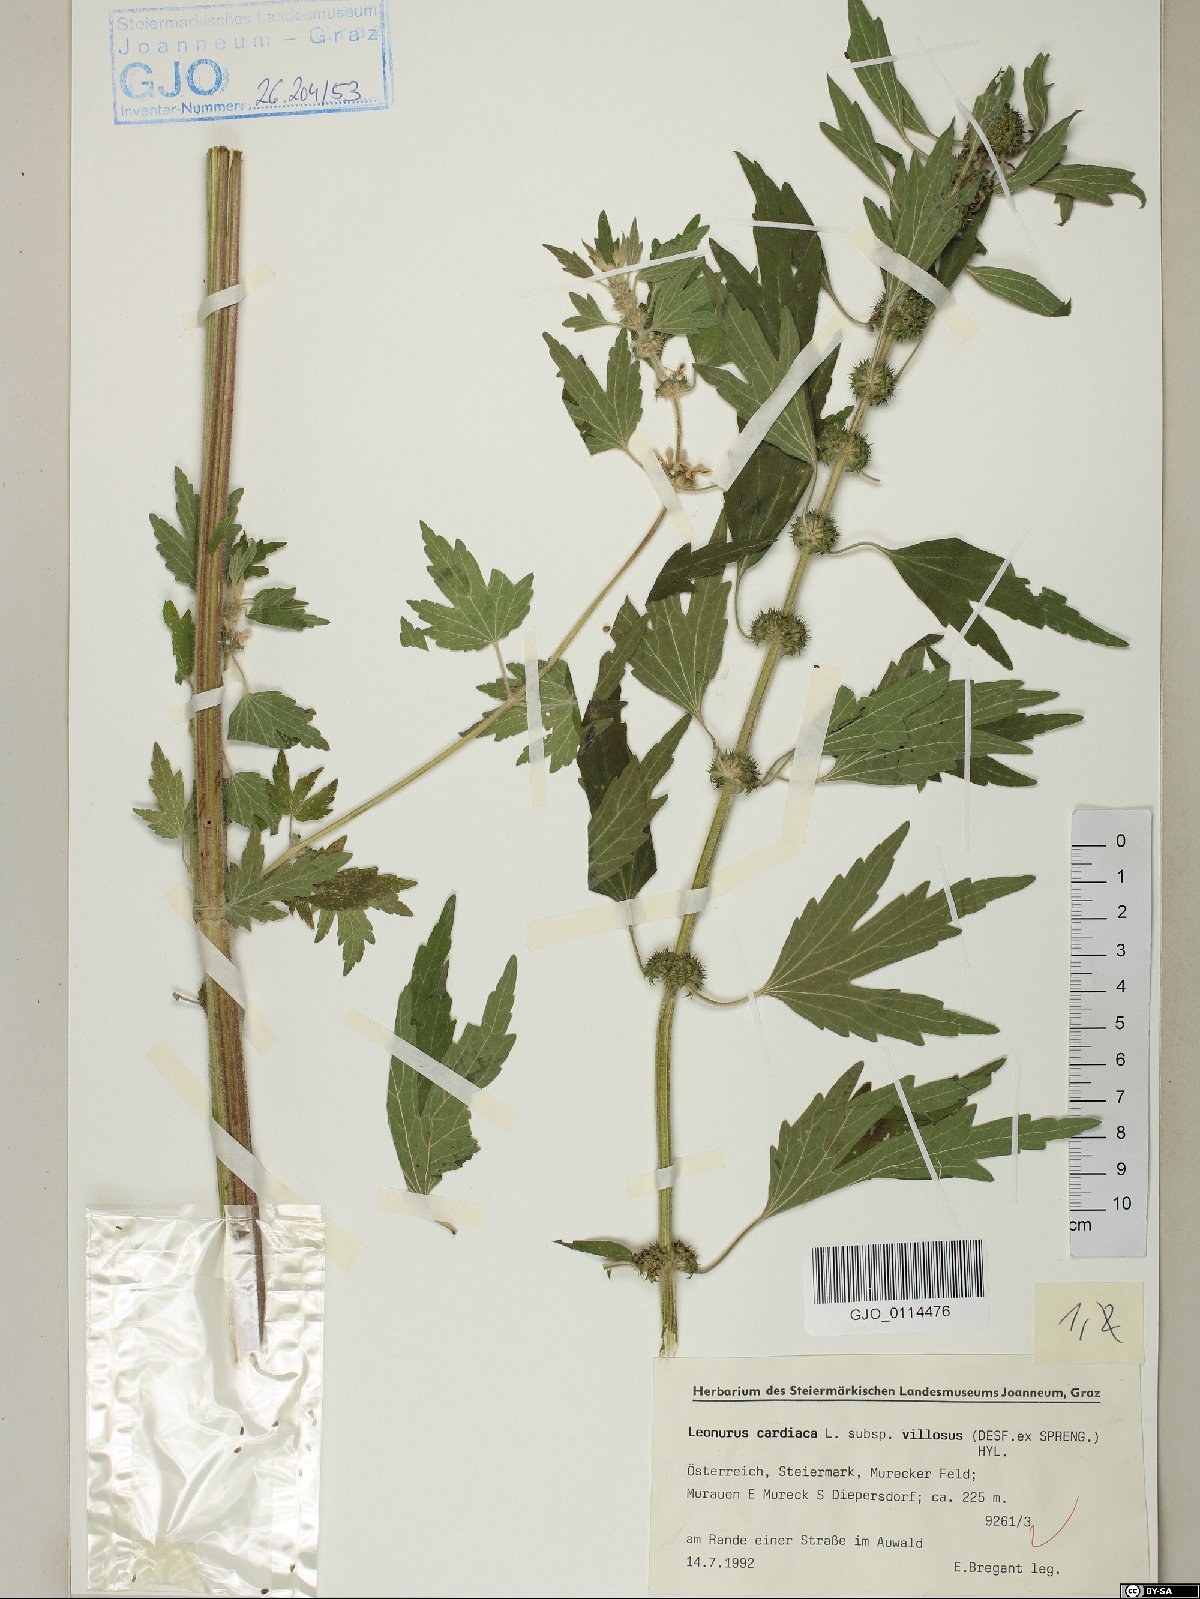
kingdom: Plantae
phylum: Tracheophyta
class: Magnoliopsida
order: Lamiales
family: Lamiaceae
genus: Leonurus
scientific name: Leonurus quinquelobatus
